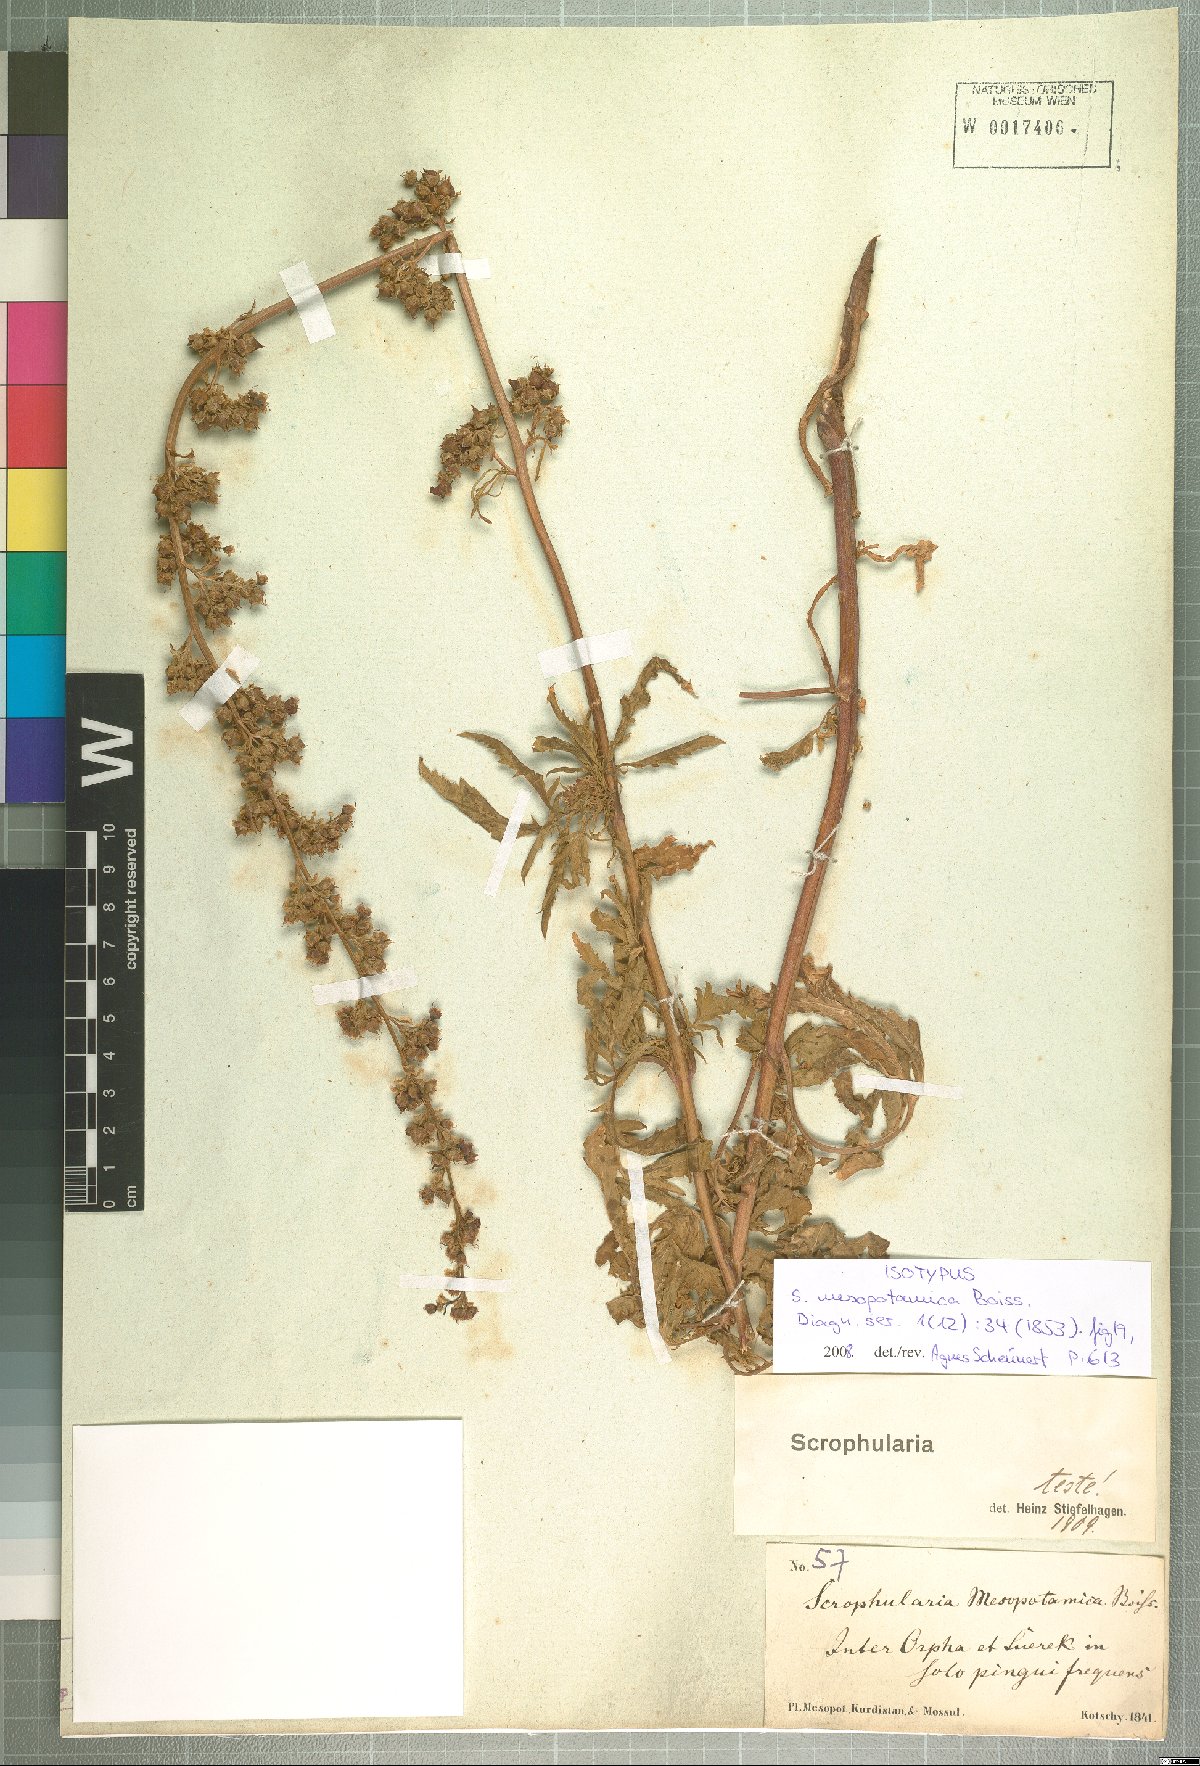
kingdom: Plantae
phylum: Tracheophyta
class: Magnoliopsida
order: Lamiales
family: Scrophulariaceae
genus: Scrophularia
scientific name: Scrophularia mesopotamica
